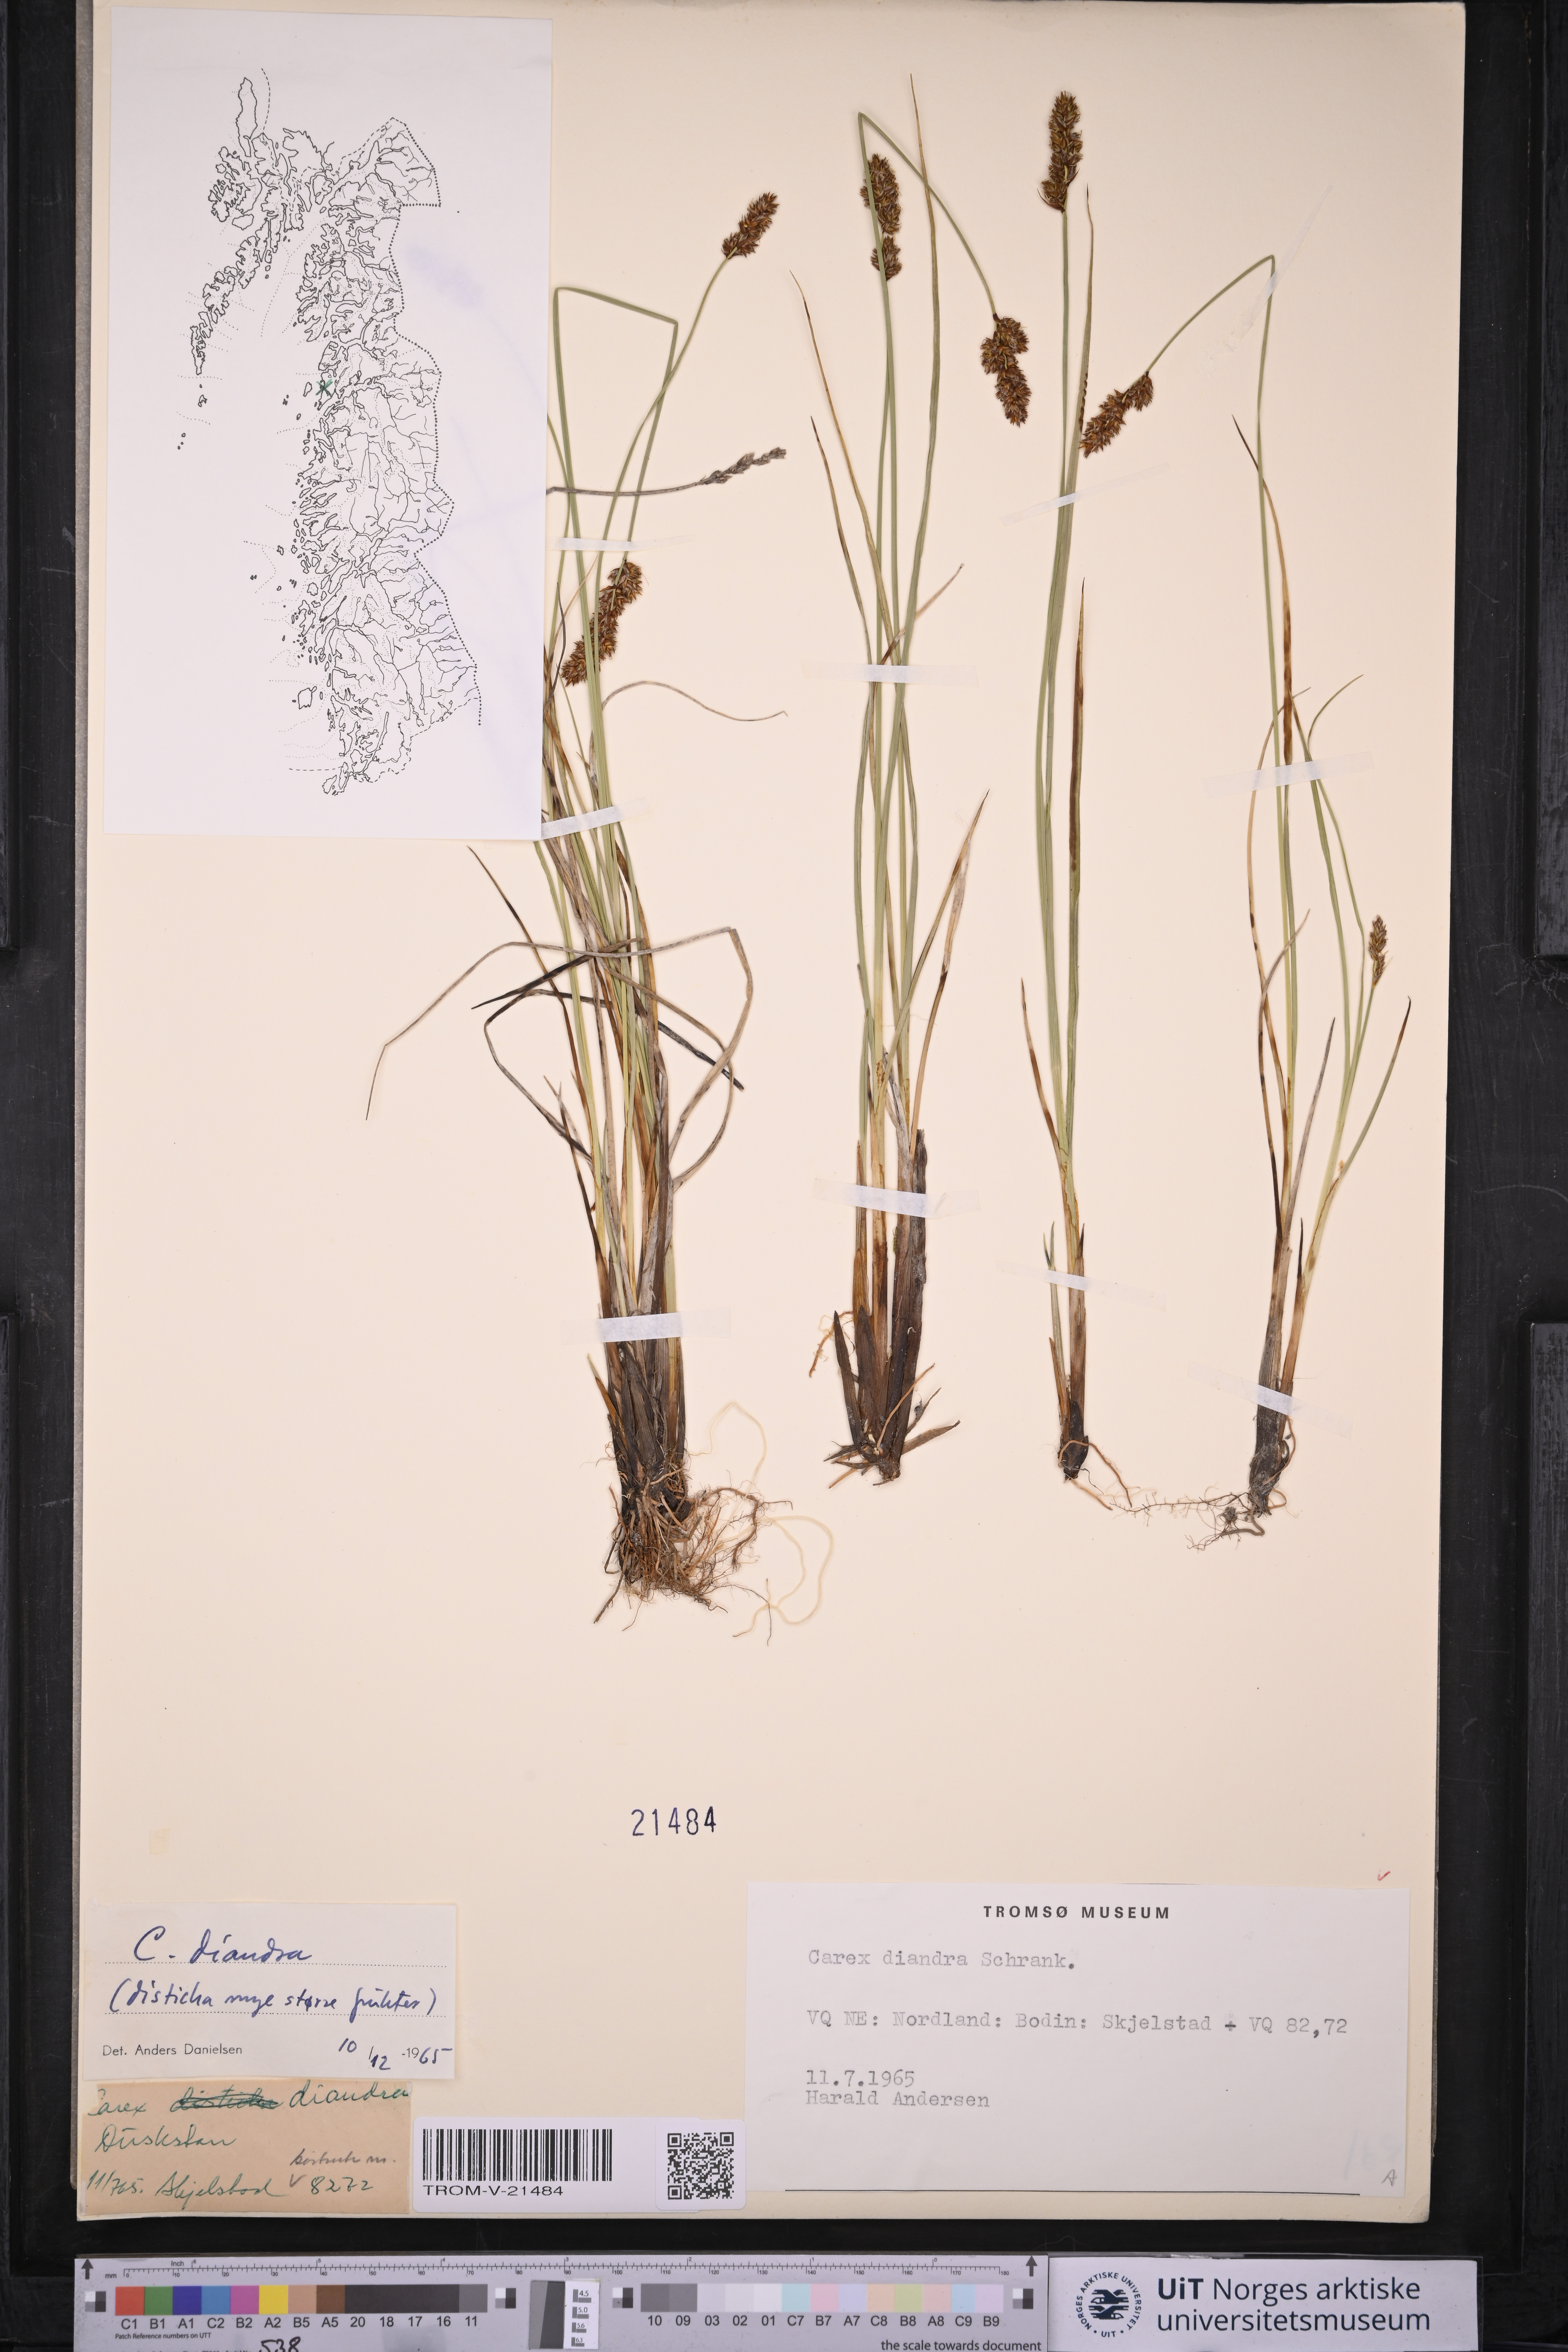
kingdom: Plantae
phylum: Tracheophyta
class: Liliopsida
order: Poales
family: Cyperaceae
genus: Carex
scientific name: Carex diandra
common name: Lesser tussock-sedge
